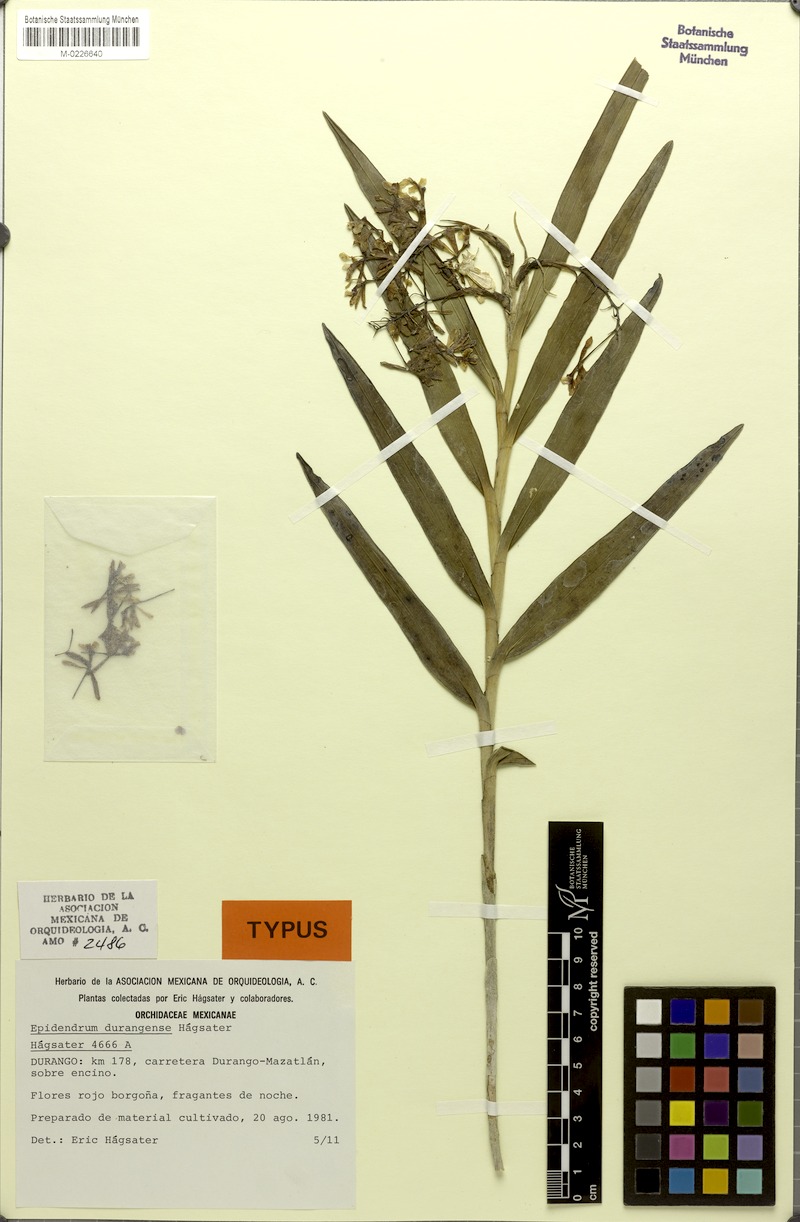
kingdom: Plantae
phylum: Tracheophyta
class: Liliopsida
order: Asparagales
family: Orchidaceae
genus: Epidendrum
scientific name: Epidendrum vandifolium
